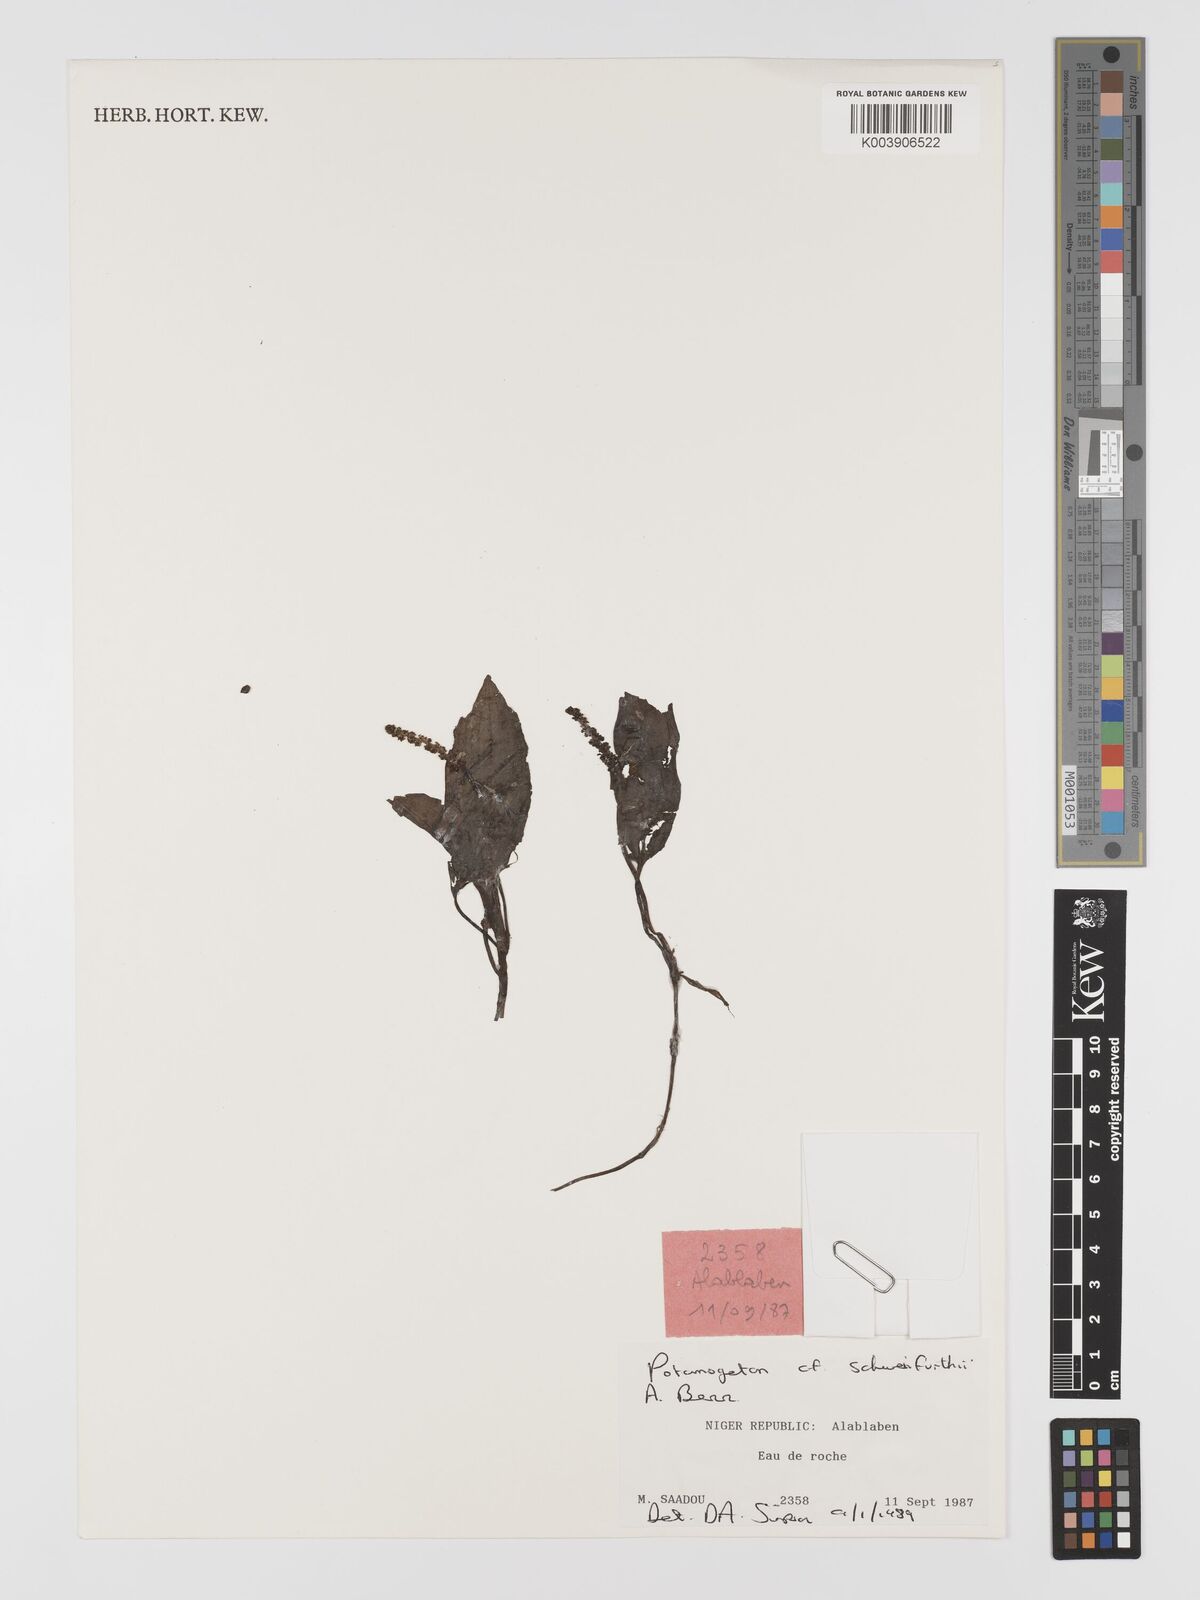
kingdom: Plantae
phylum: Tracheophyta
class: Liliopsida
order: Alismatales
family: Potamogetonaceae
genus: Potamogeton
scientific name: Potamogeton nodosus
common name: Loddon pondweed
